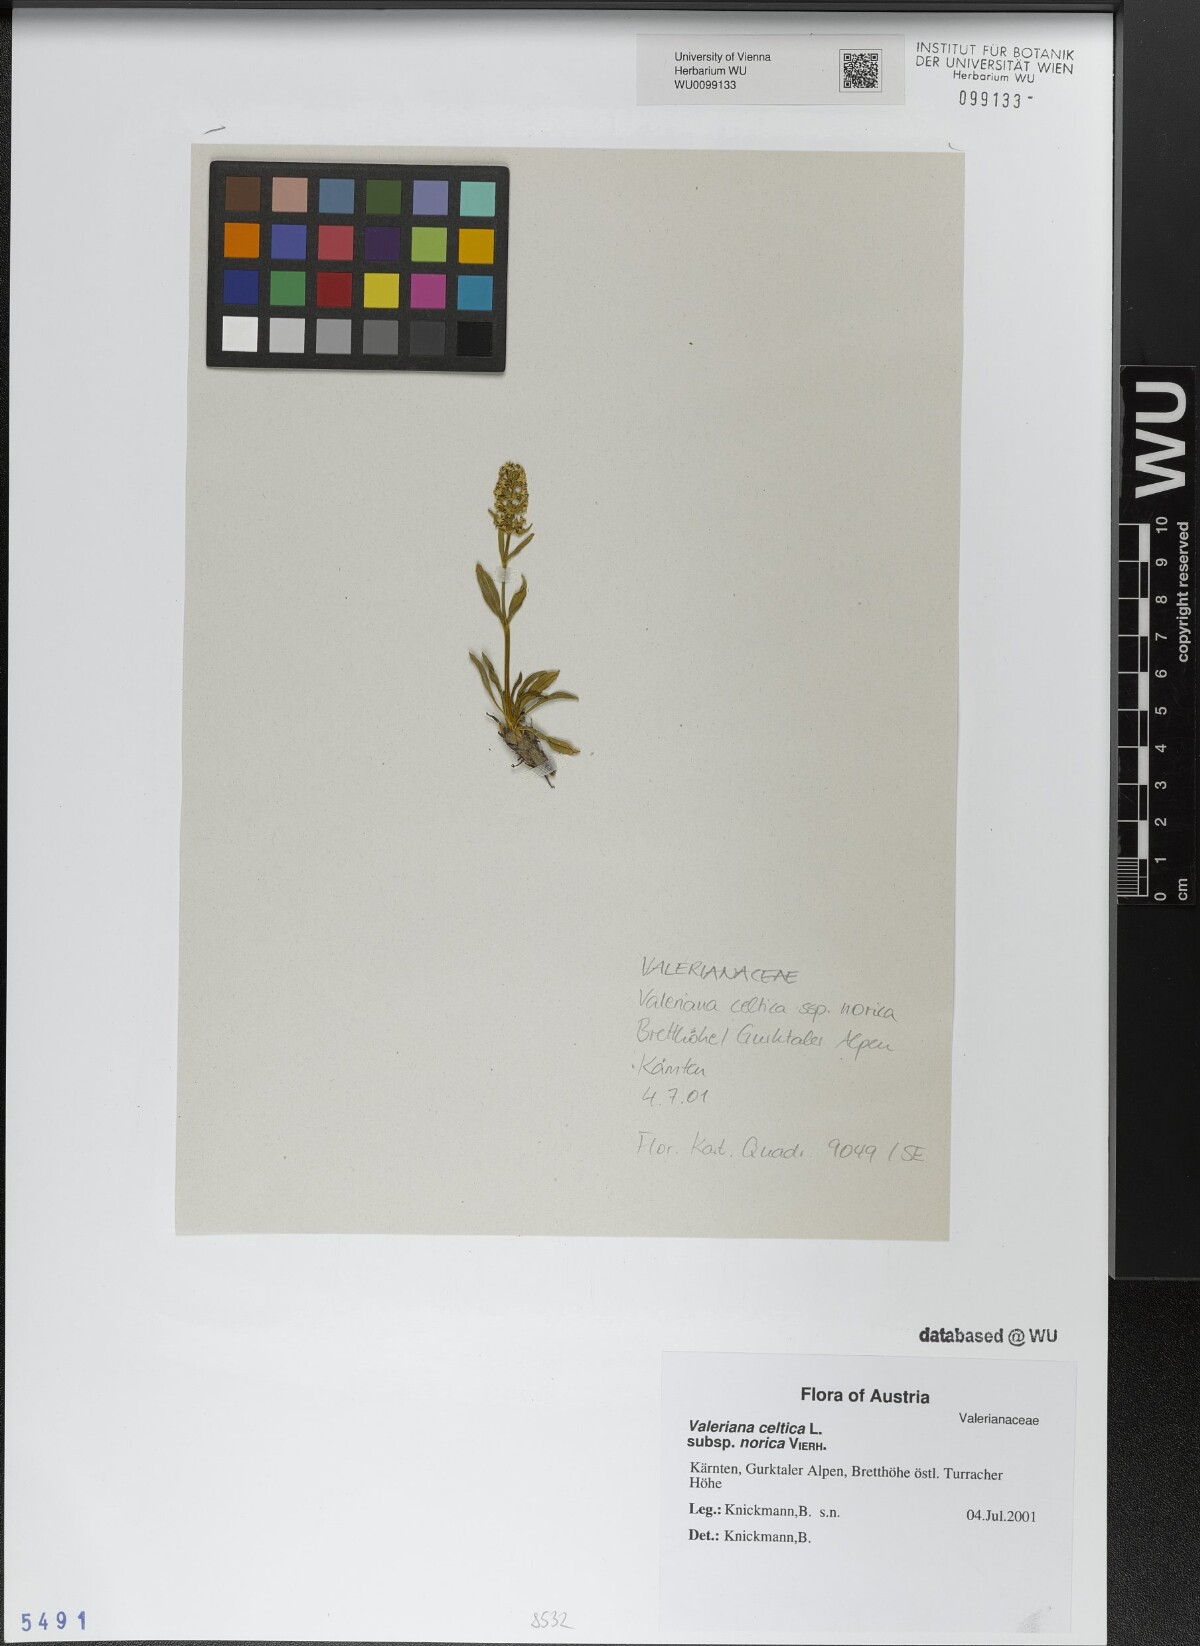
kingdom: Plantae
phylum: Tracheophyta
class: Magnoliopsida
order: Dipsacales
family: Caprifoliaceae
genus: Valeriana
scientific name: Valeriana celtica
